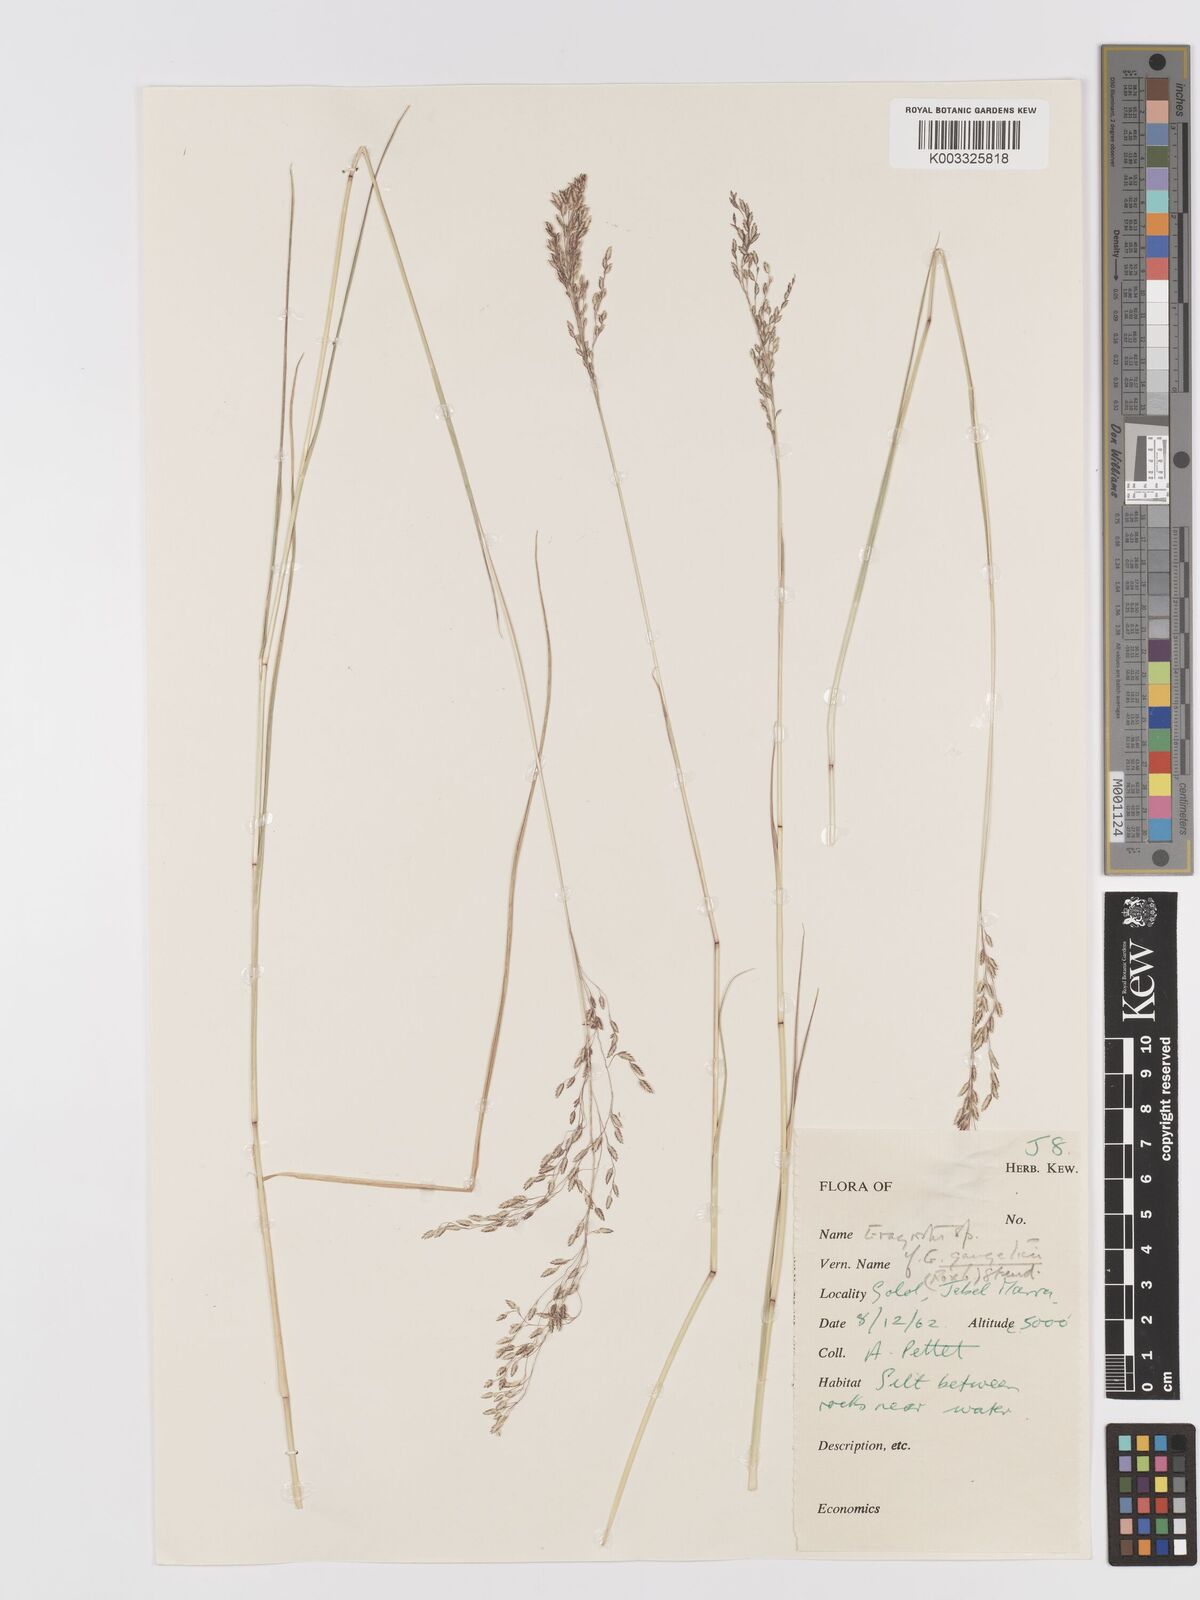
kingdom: Plantae
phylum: Tracheophyta
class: Liliopsida
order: Poales
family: Poaceae
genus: Eragrostis
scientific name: Eragrostis gangetica
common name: Slimflower lovegrass
